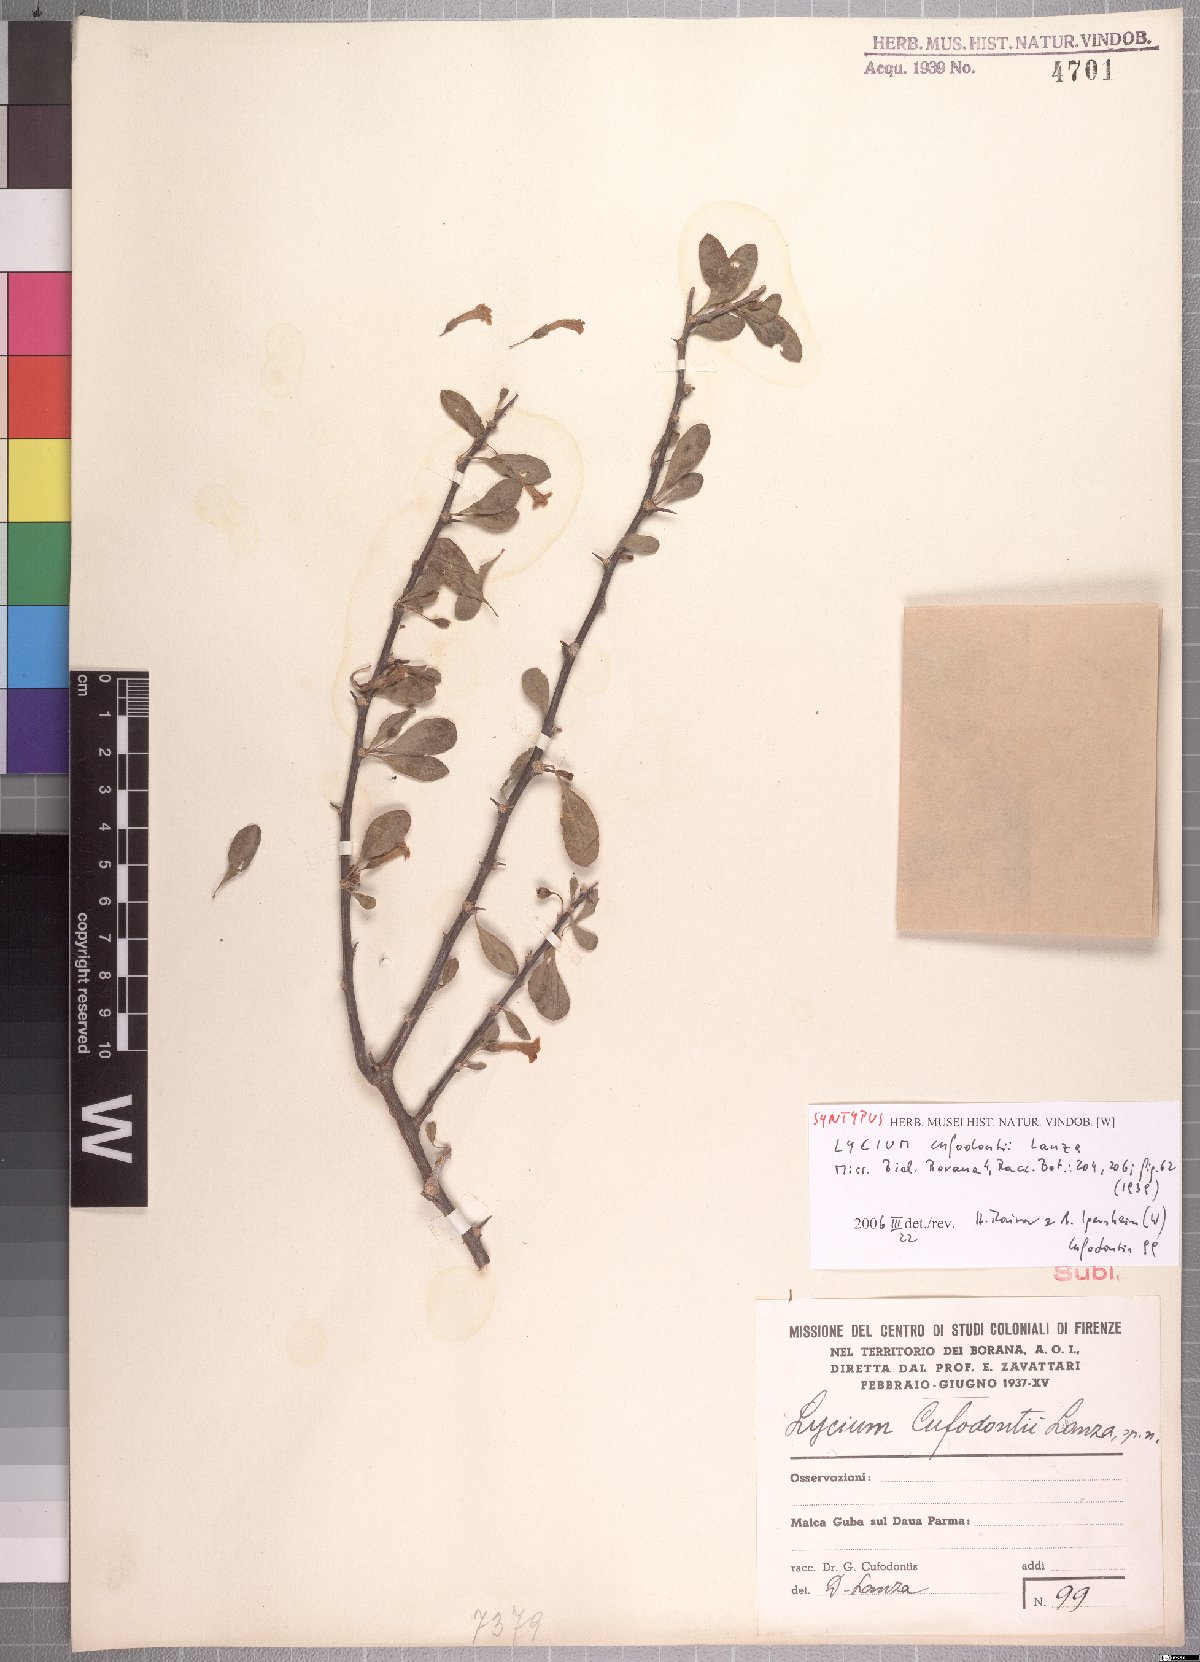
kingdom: Plantae
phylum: Tracheophyta
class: Magnoliopsida
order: Solanales
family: Solanaceae
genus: Lycium
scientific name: Lycium shawii
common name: Boxthorn
